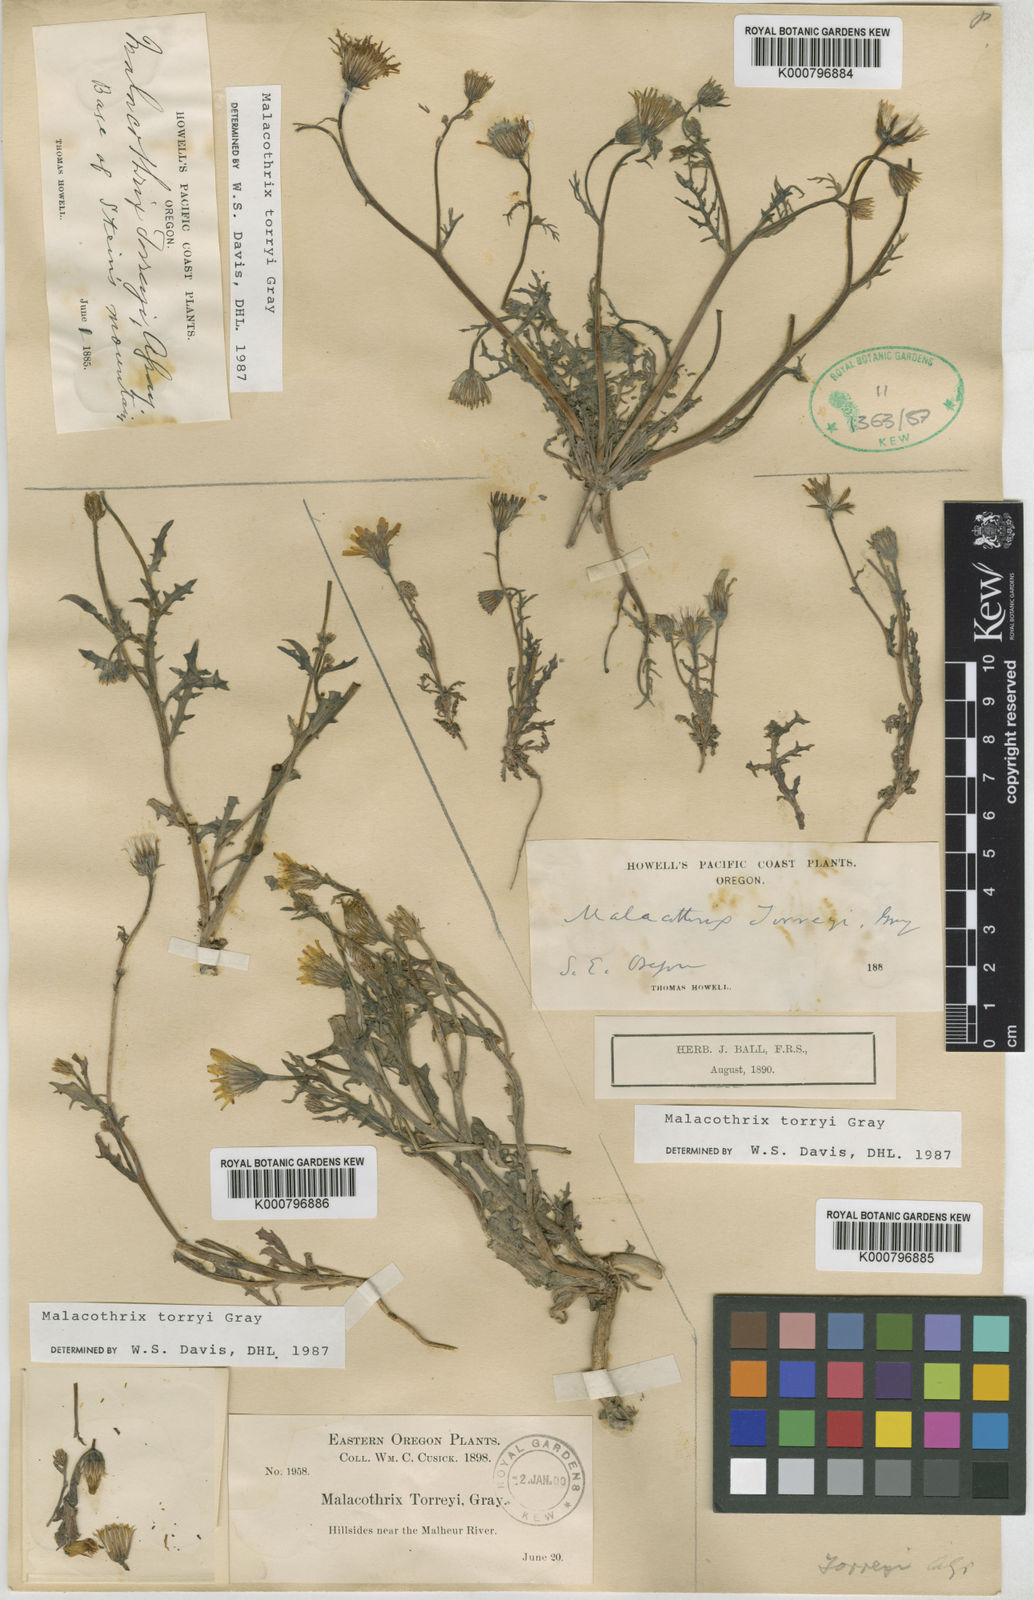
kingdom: Plantae
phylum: Tracheophyta
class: Magnoliopsida
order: Asterales
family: Asteraceae
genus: Malacothrix
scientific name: Malacothrix torreyi
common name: Torrey's desert-dandelion
